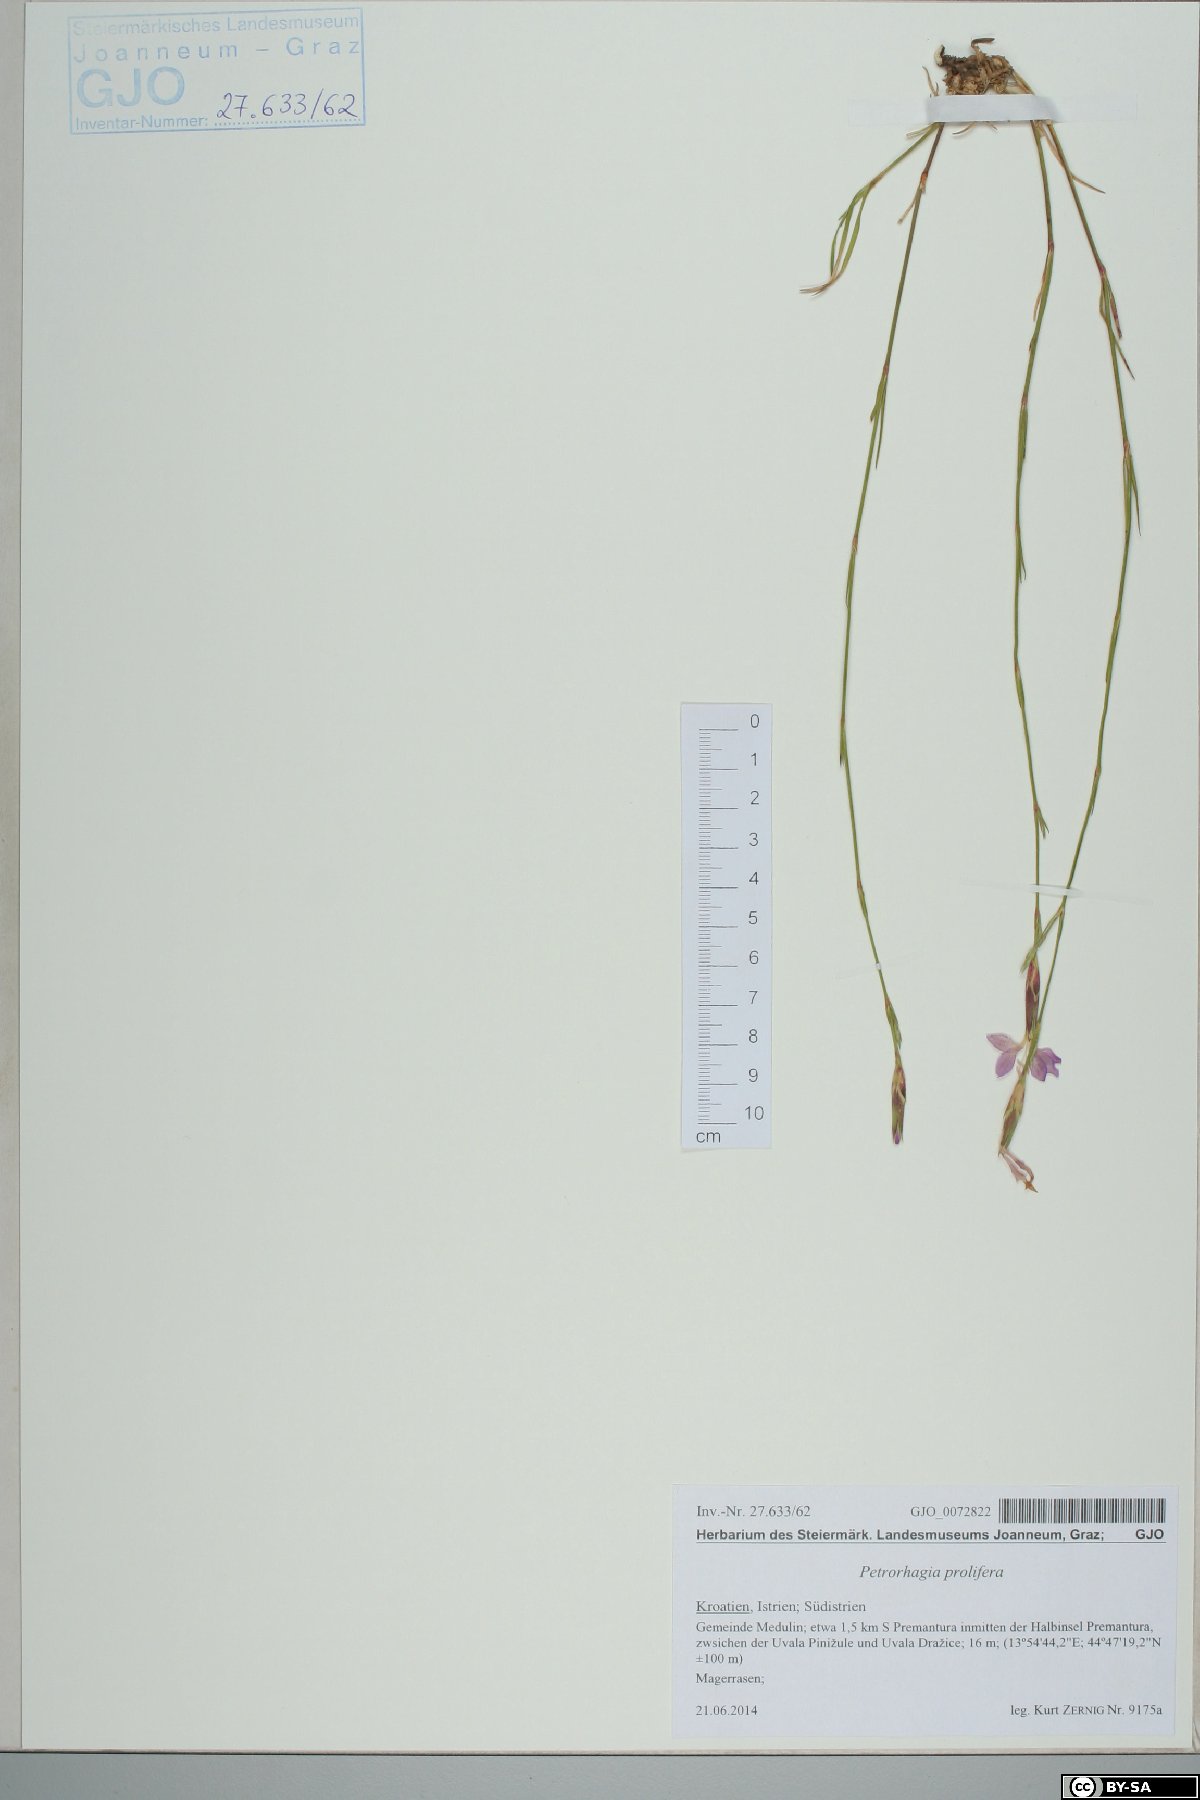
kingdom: Plantae
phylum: Tracheophyta
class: Magnoliopsida
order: Caryophyllales
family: Caryophyllaceae
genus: Dianthus
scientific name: Dianthus ciliatus
